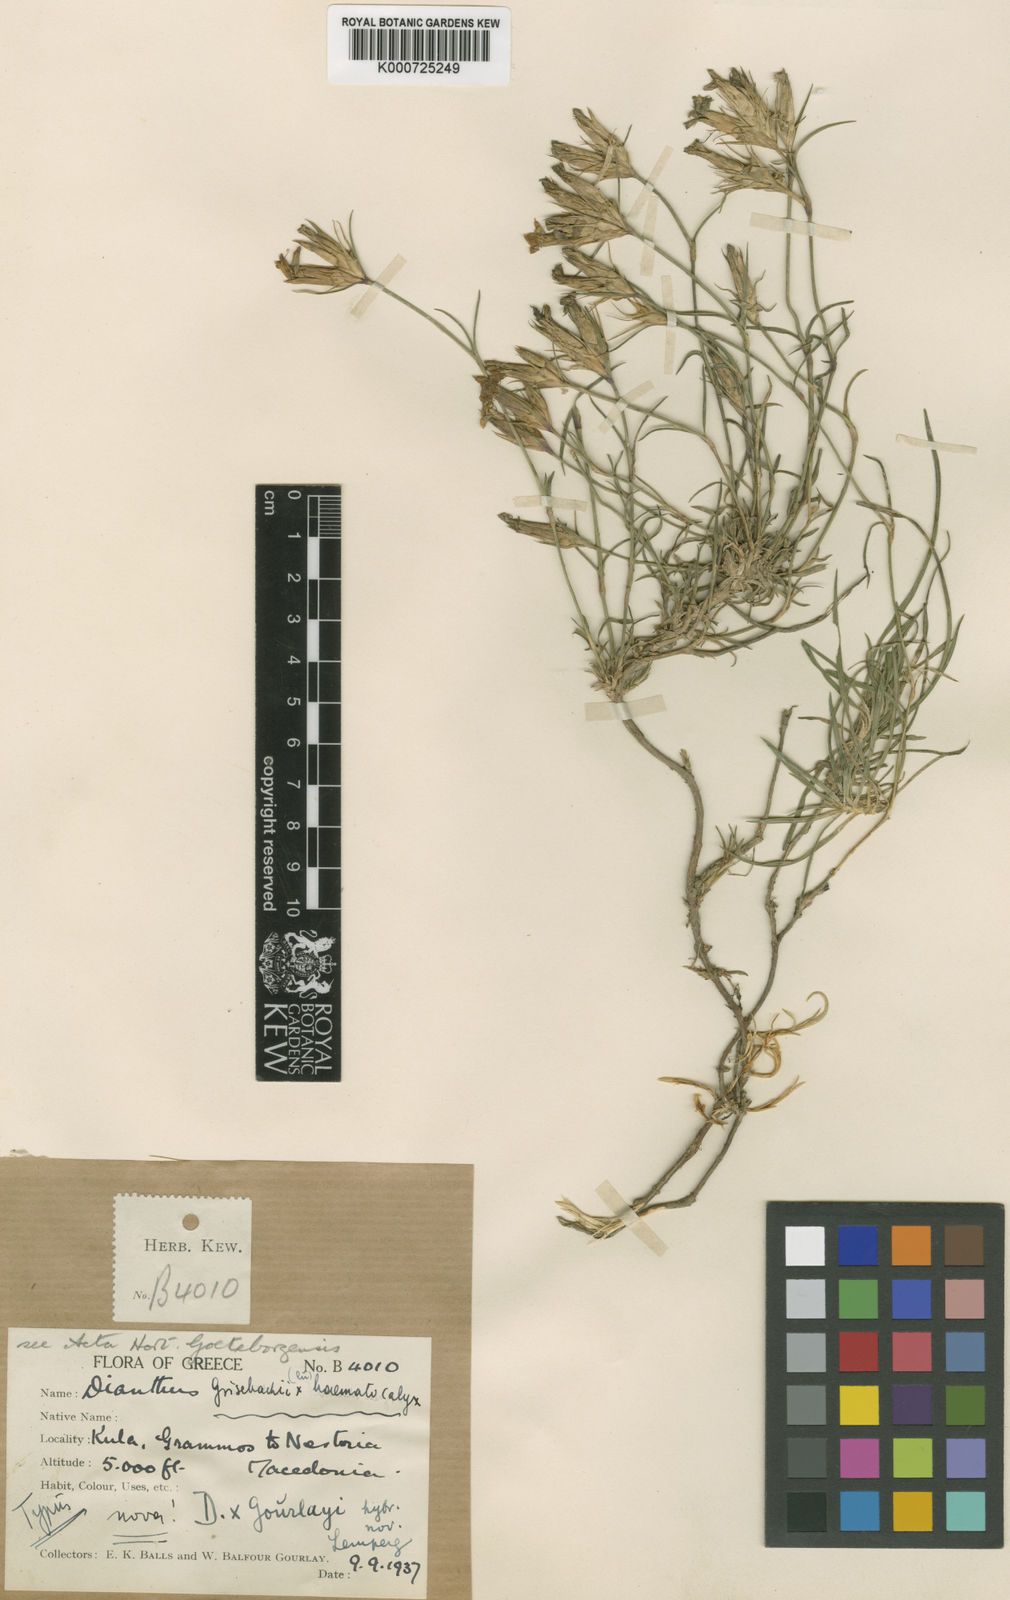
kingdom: Plantae
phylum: Tracheophyta
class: Magnoliopsida
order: Caryophyllales
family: Caryophyllaceae
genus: Dianthus
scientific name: Dianthus viscidus
